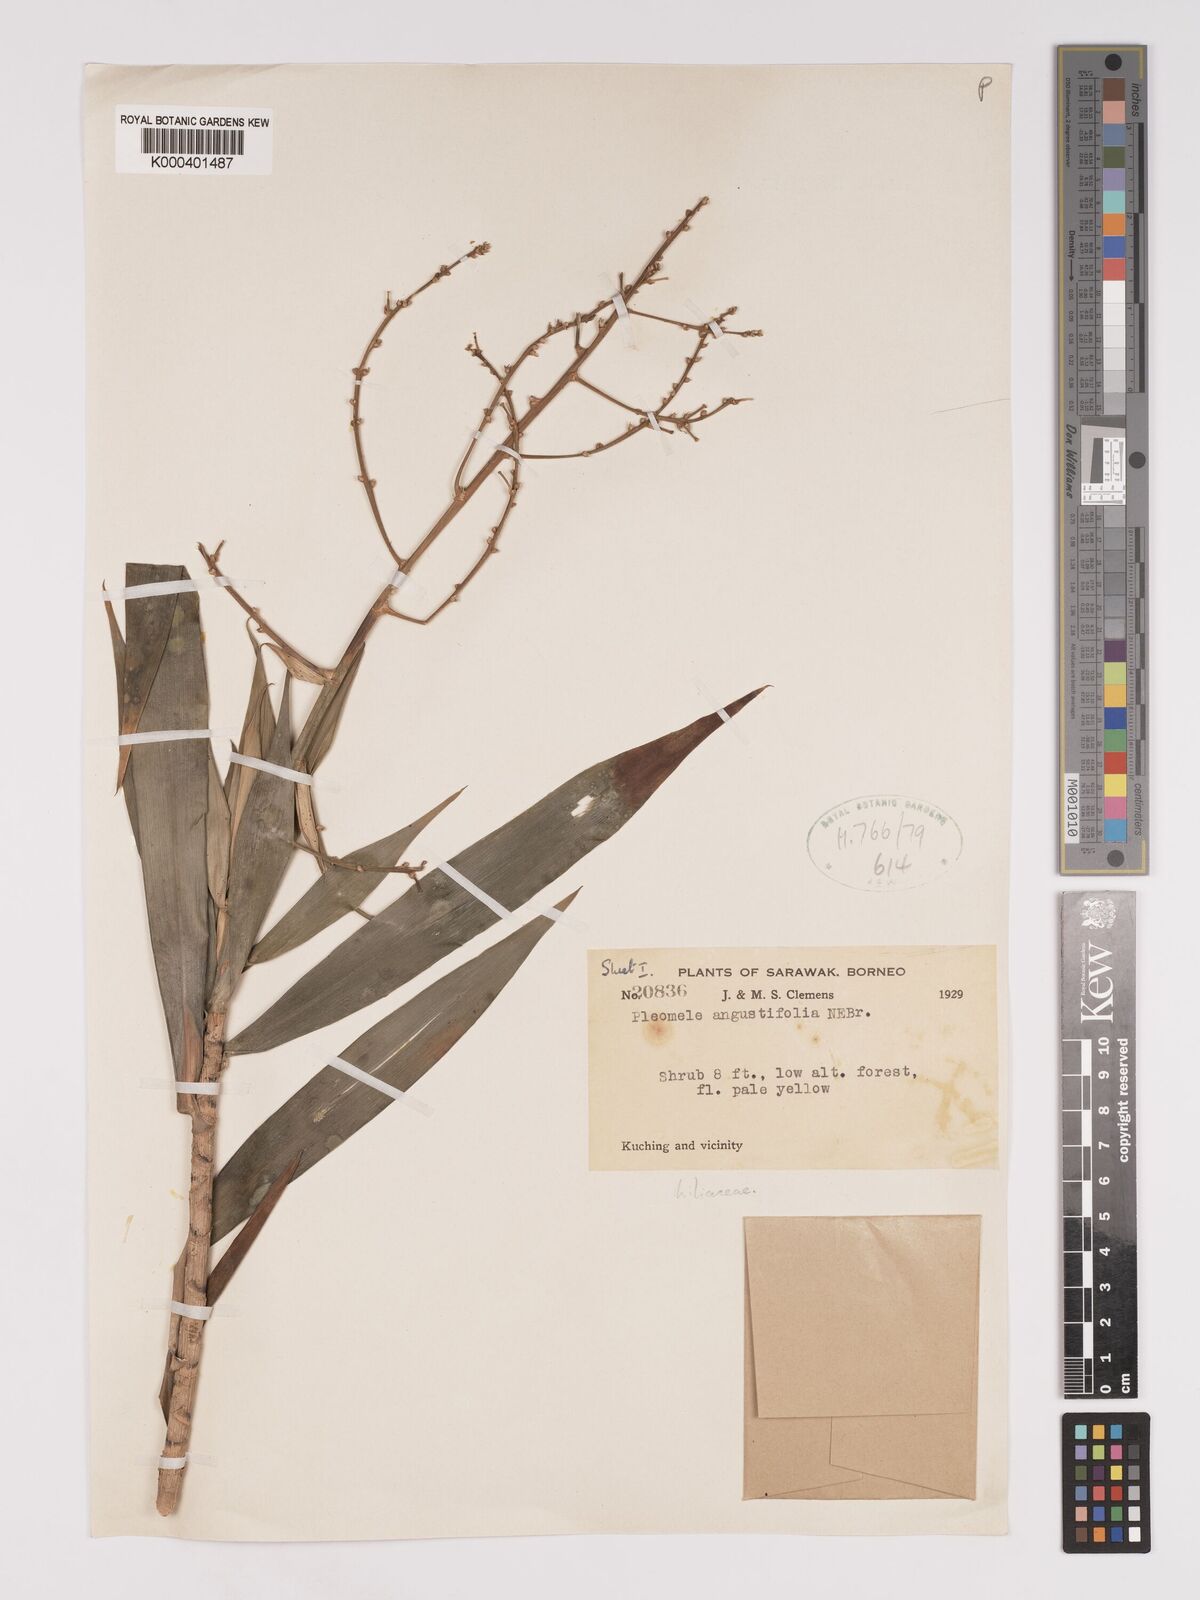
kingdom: Plantae
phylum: Tracheophyta
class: Liliopsida
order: Asparagales
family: Asparagaceae
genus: Dracaena
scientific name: Dracaena angustifolia
